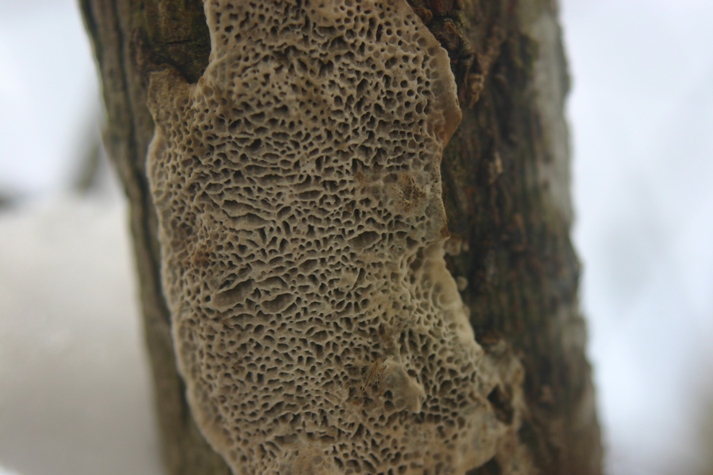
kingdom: Fungi
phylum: Basidiomycota
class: Agaricomycetes
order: Polyporales
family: Polyporaceae
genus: Podofomes
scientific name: Podofomes mollis
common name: blød begporesvamp
